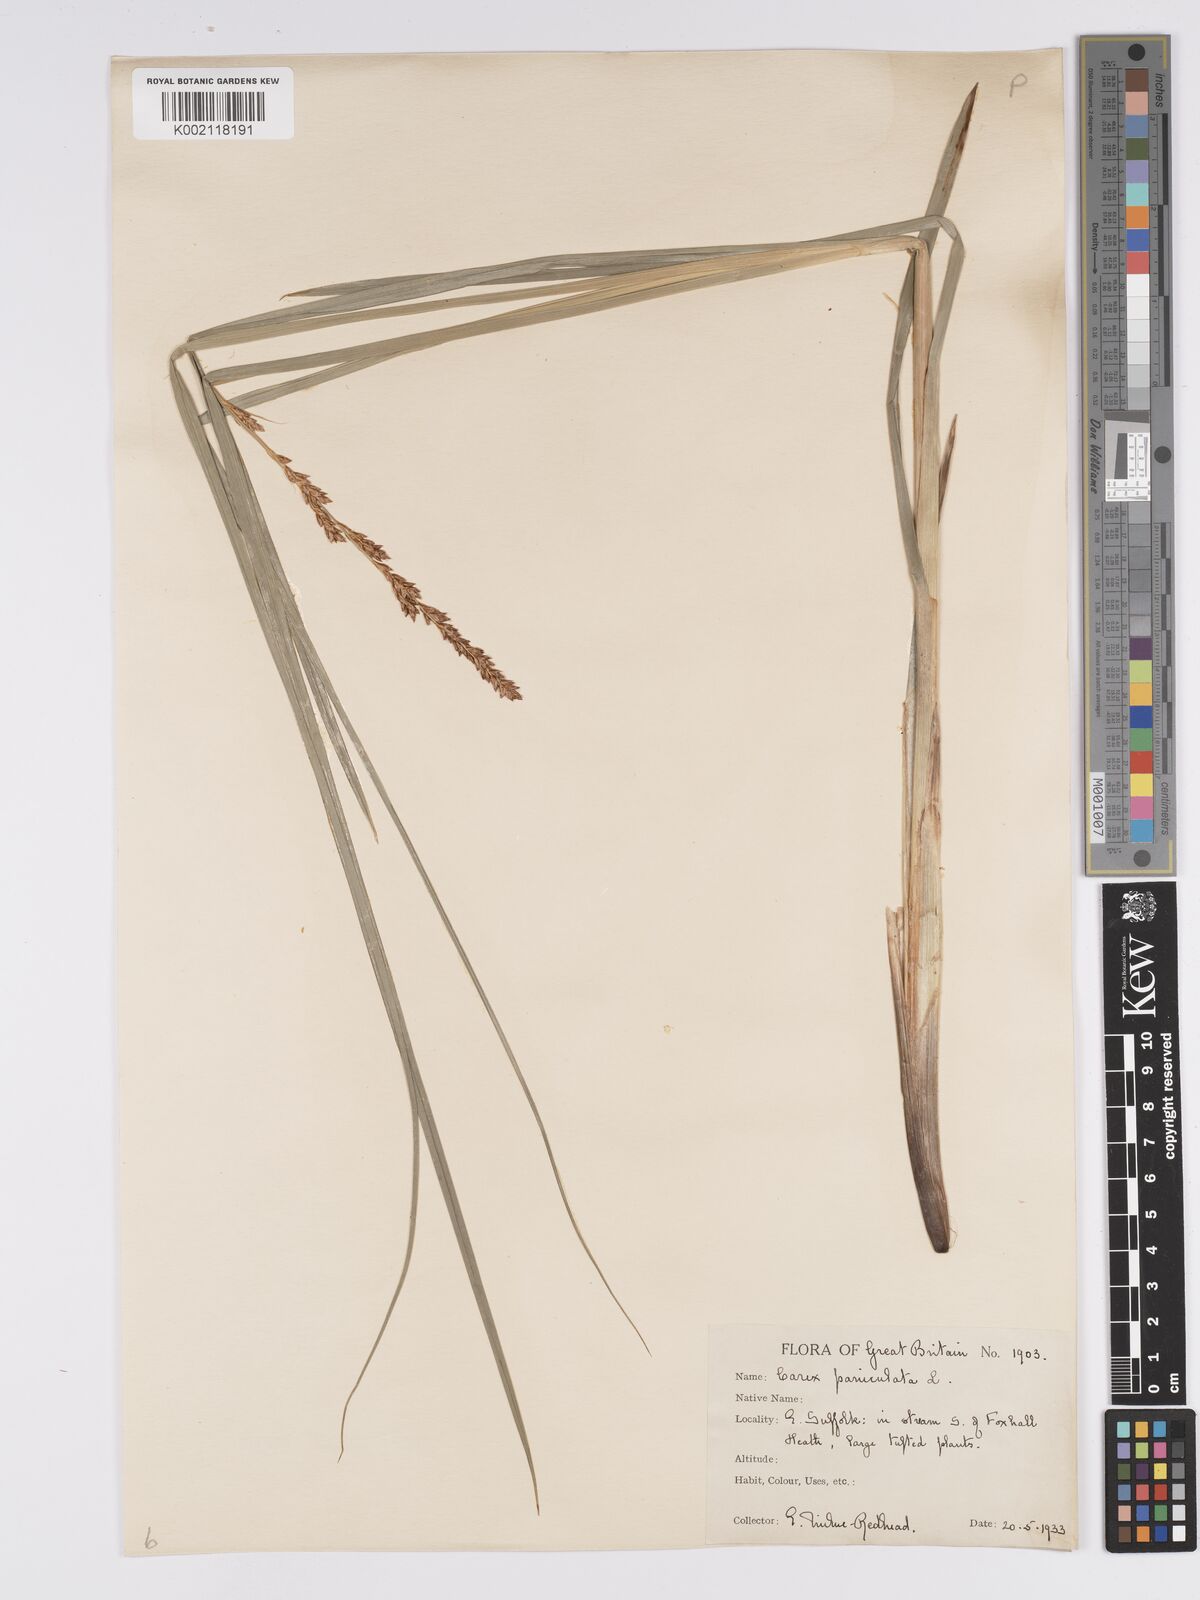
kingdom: Plantae
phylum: Tracheophyta
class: Liliopsida
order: Poales
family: Cyperaceae
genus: Carex
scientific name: Carex paniculata
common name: Greater tussock-sedge
